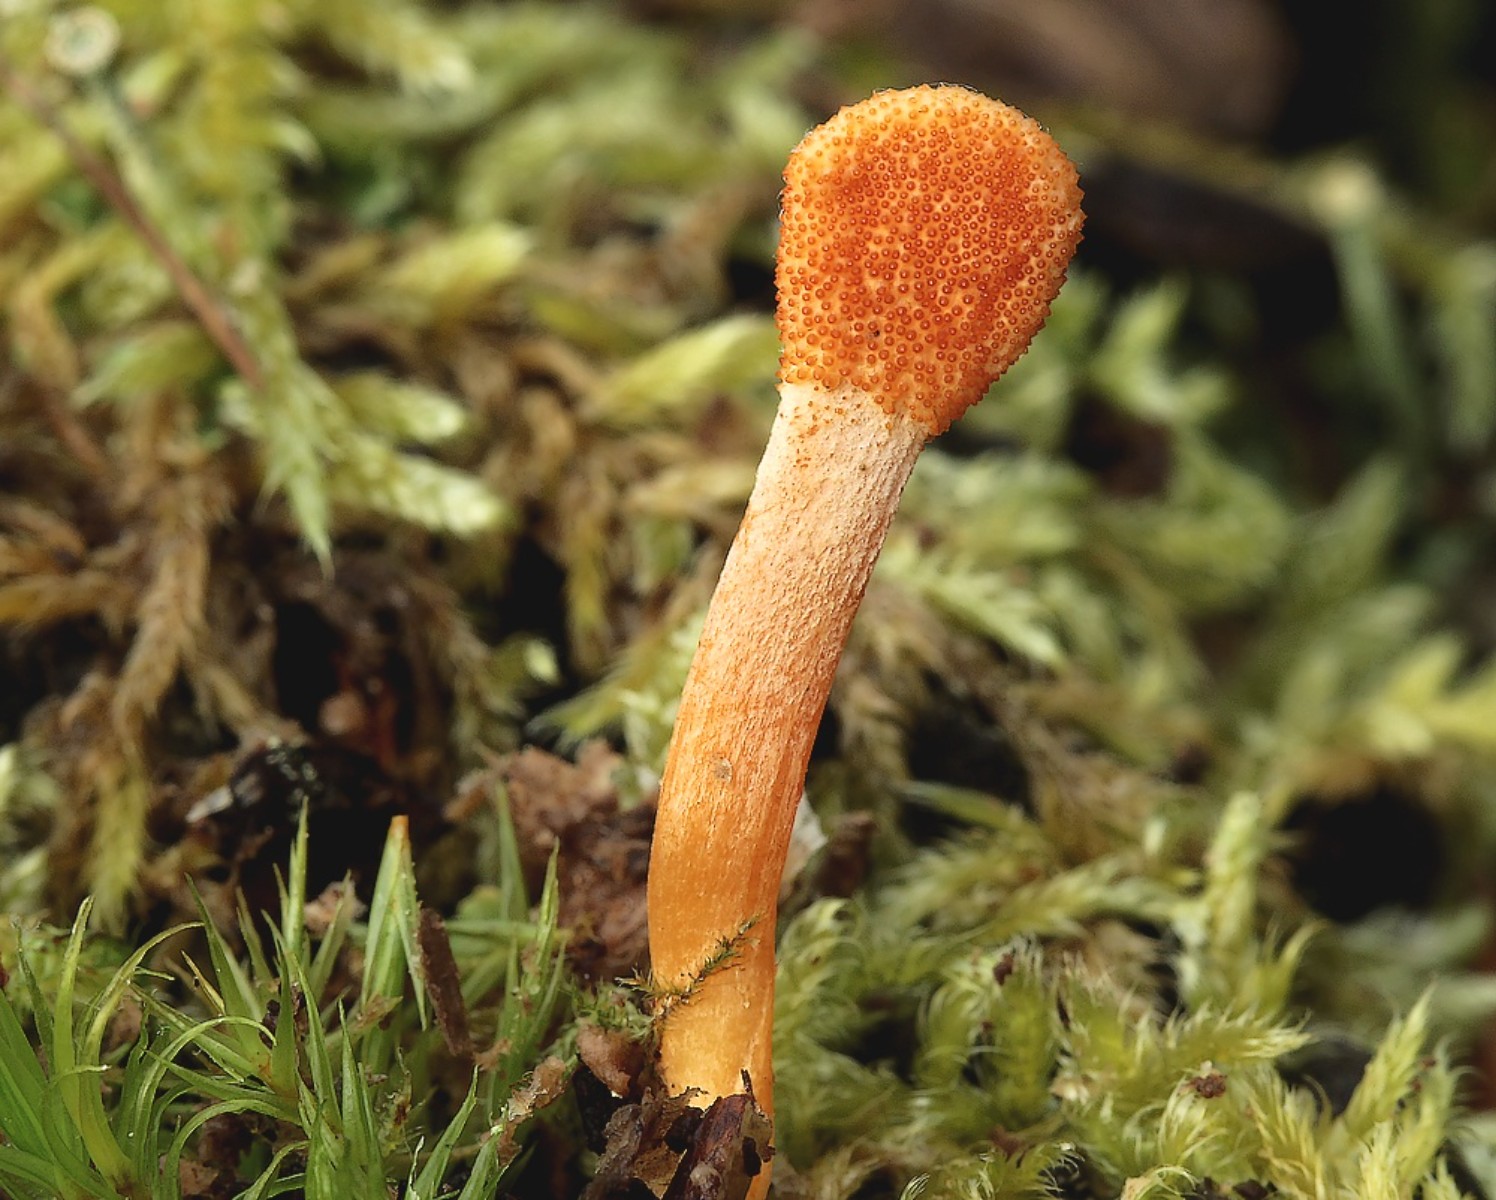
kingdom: Fungi
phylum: Ascomycota
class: Sordariomycetes
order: Hypocreales
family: Cordycipitaceae
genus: Cordyceps
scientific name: Cordyceps militaris
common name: puppe-snyltekølle
